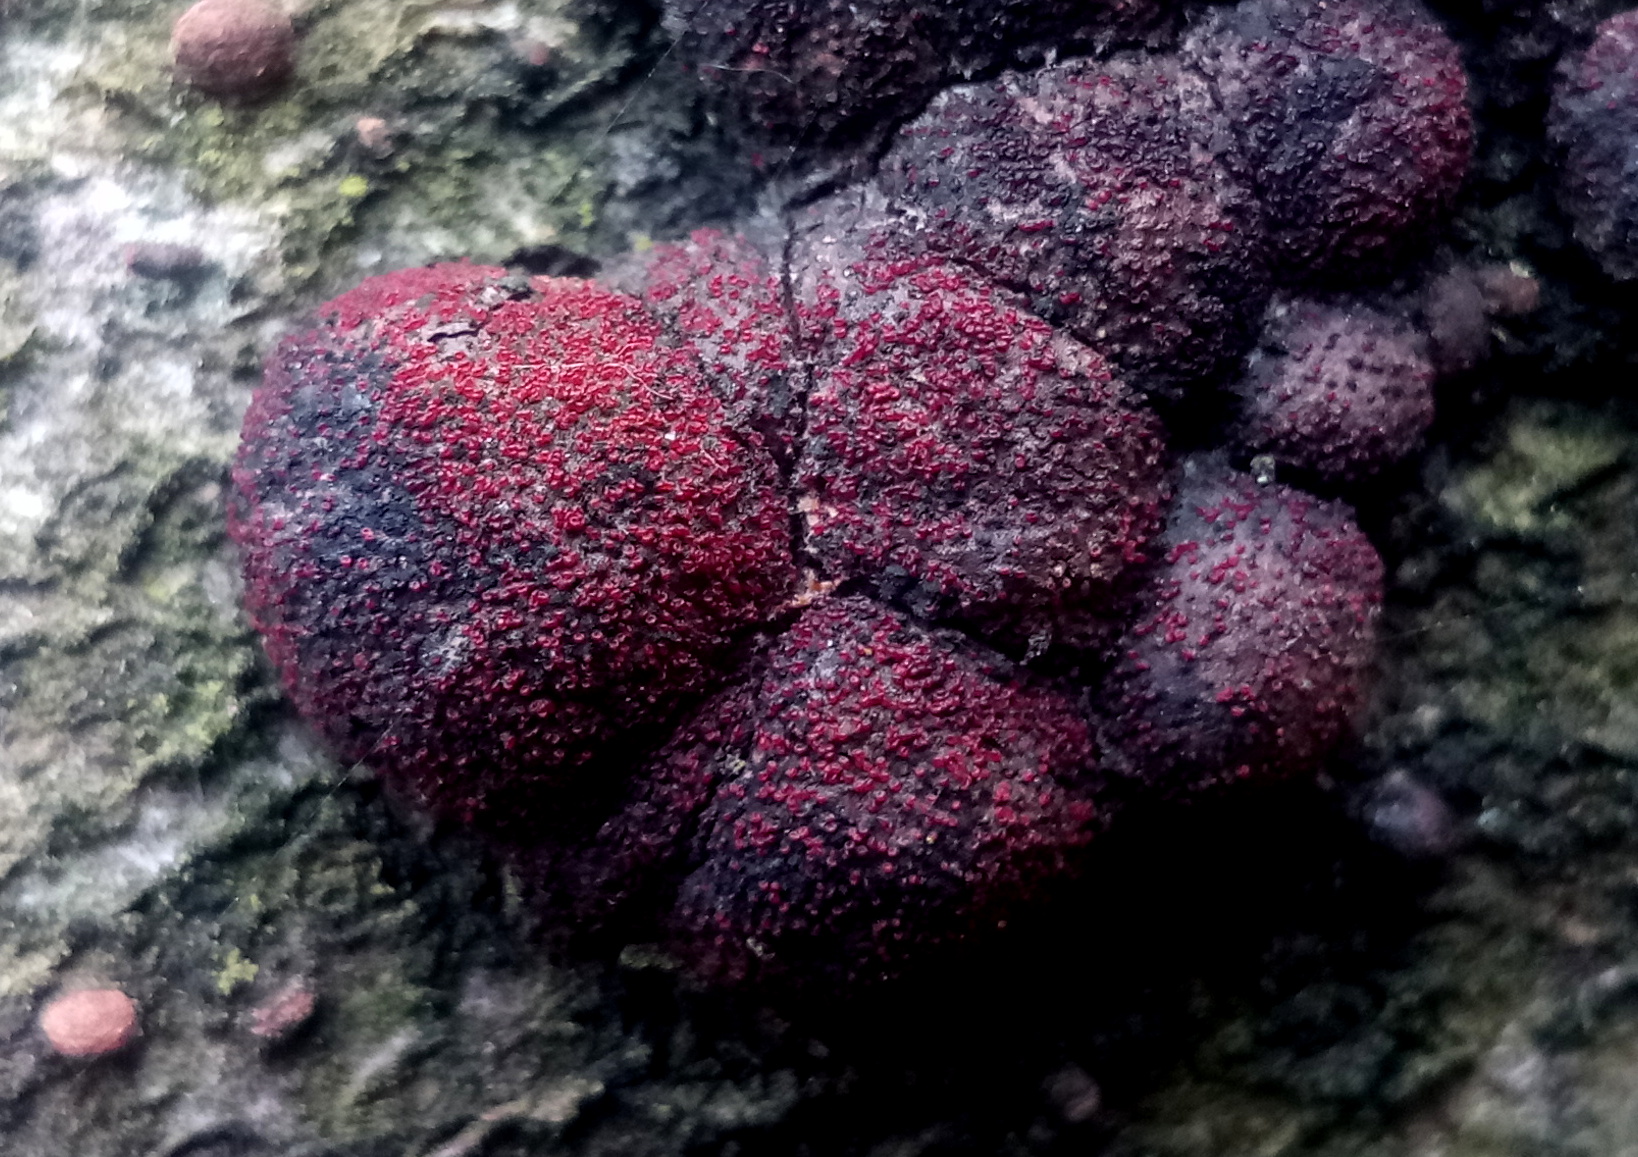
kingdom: Fungi
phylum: Ascomycota
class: Sordariomycetes
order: Hypocreales
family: Nectriaceae
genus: Cosmospora
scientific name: Cosmospora arxii
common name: kuljordbær-cinnobersvamp
